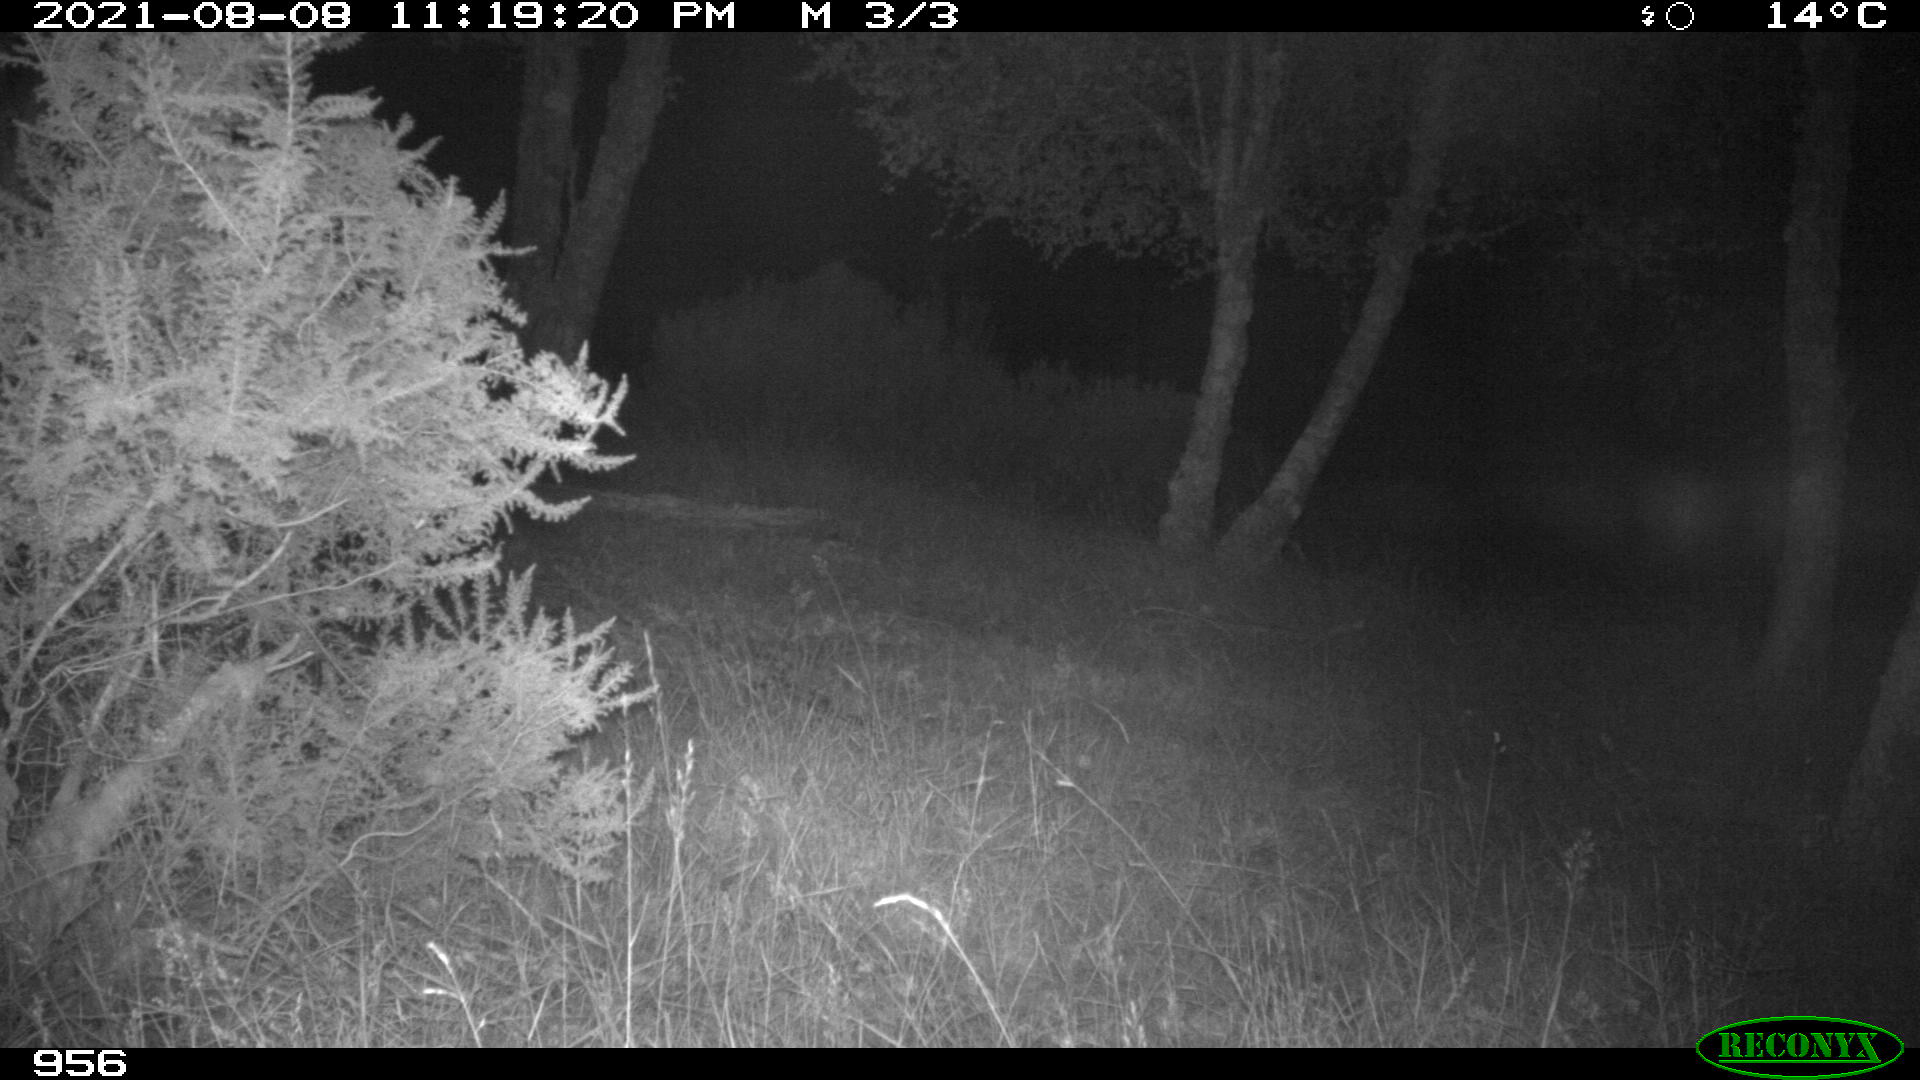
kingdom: Animalia
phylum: Chordata
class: Mammalia
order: Artiodactyla
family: Suidae
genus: Sus
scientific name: Sus scrofa
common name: Wild boar
